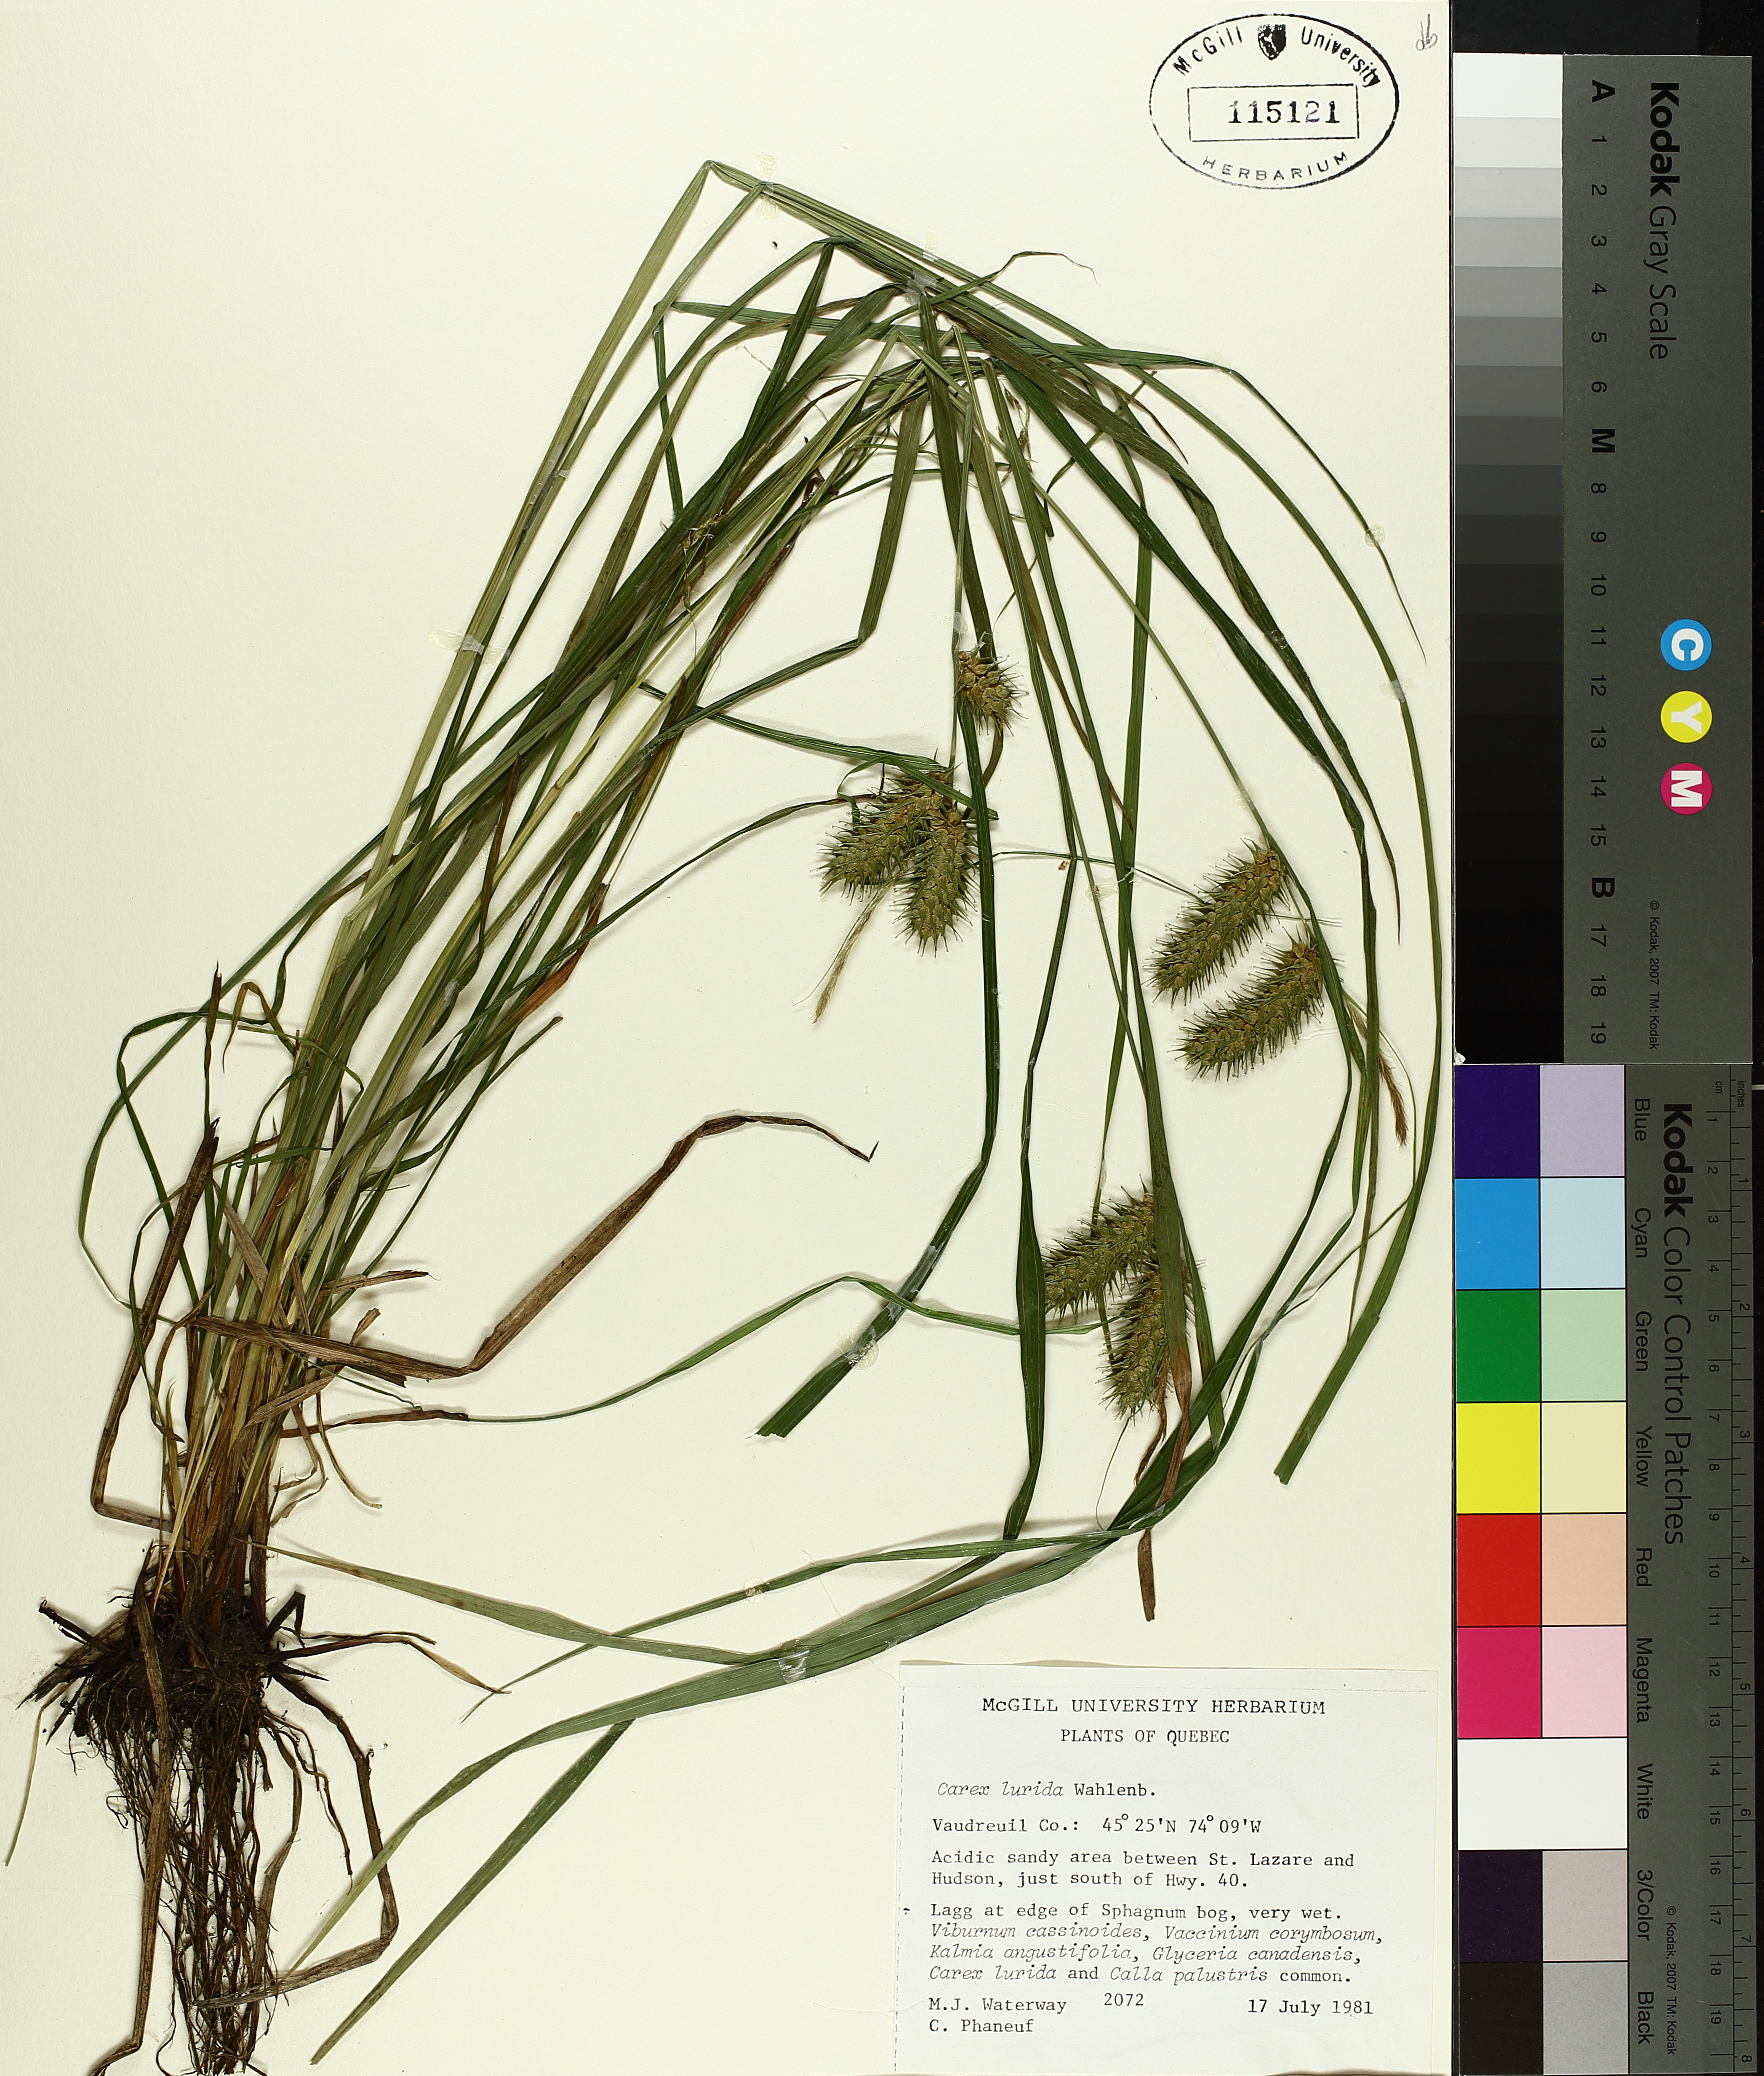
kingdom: Plantae
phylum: Tracheophyta
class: Liliopsida
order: Poales
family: Cyperaceae
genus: Carex
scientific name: Carex lurida
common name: Sallow sedge
